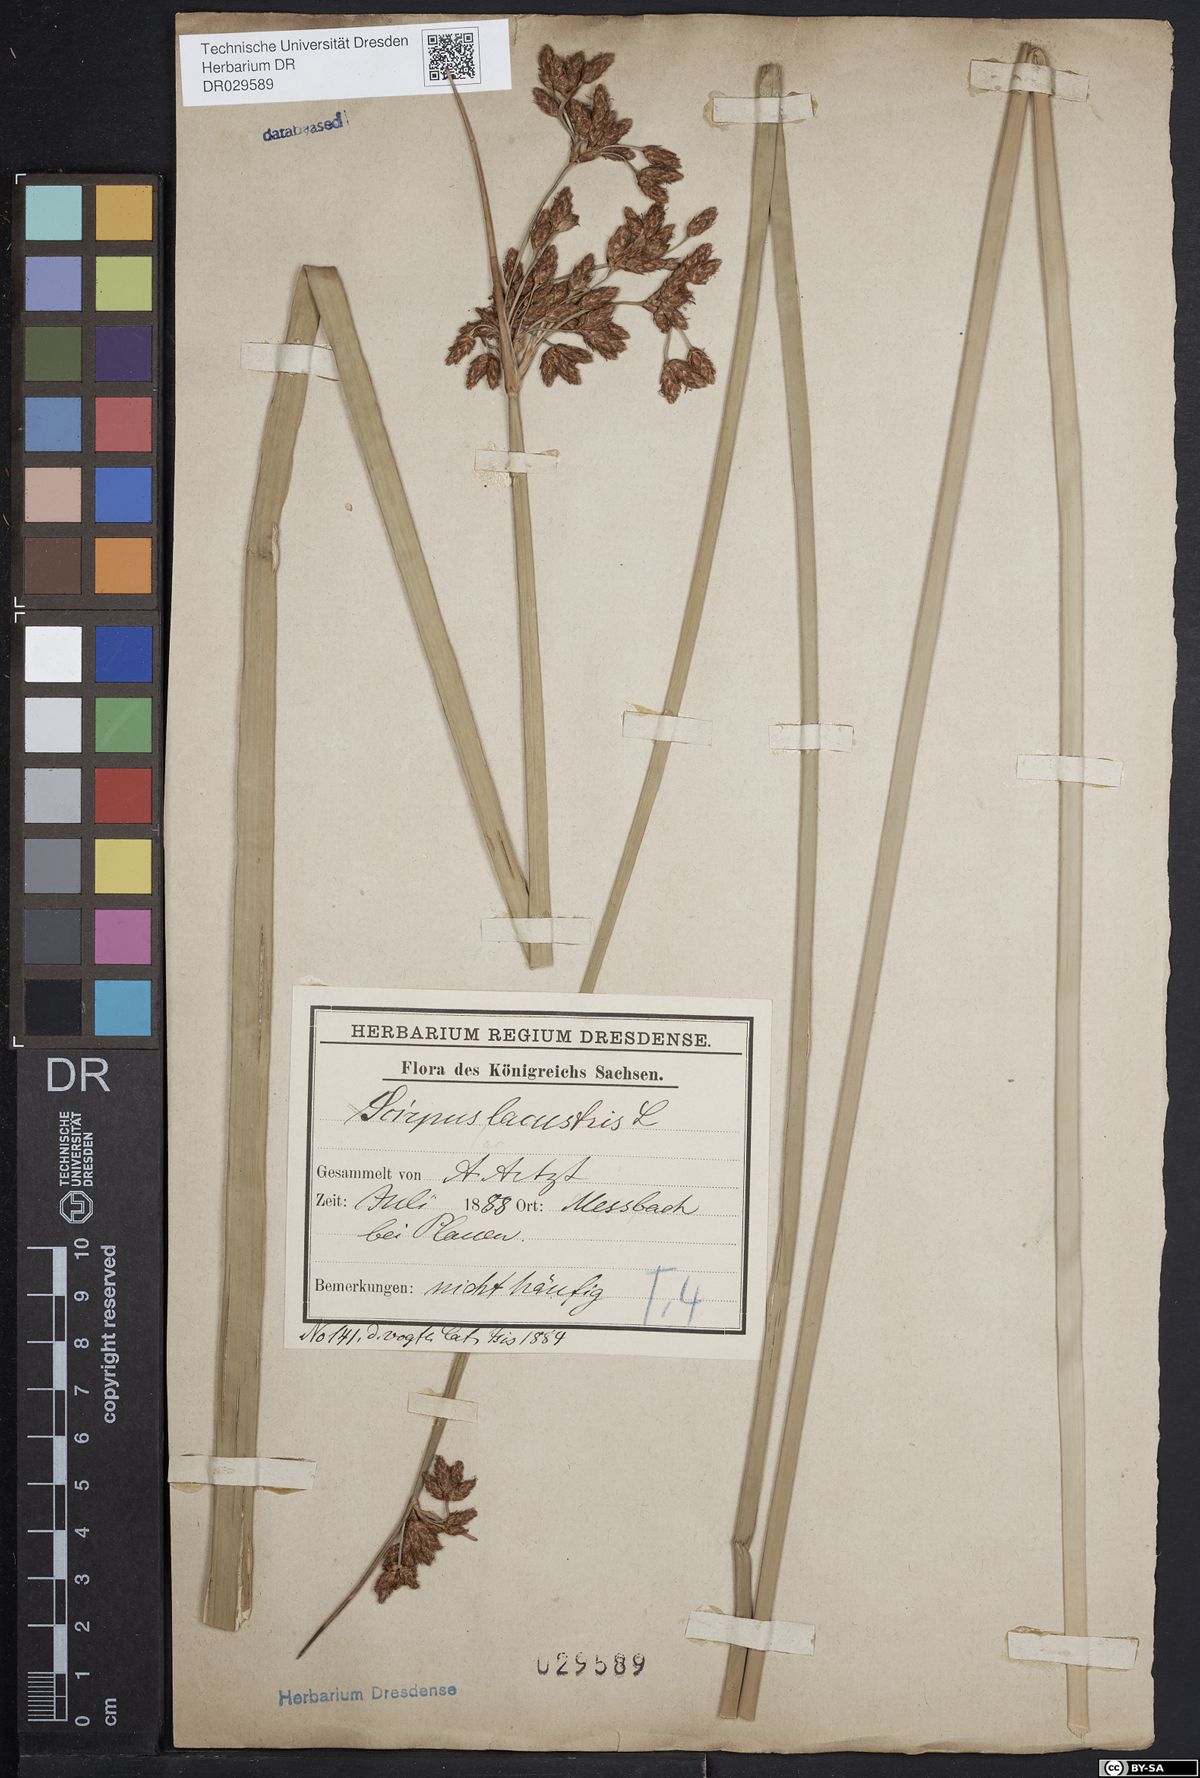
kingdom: Plantae
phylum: Tracheophyta
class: Liliopsida
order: Poales
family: Cyperaceae
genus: Schoenoplectus
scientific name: Schoenoplectus lacustris
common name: Common club-rush
